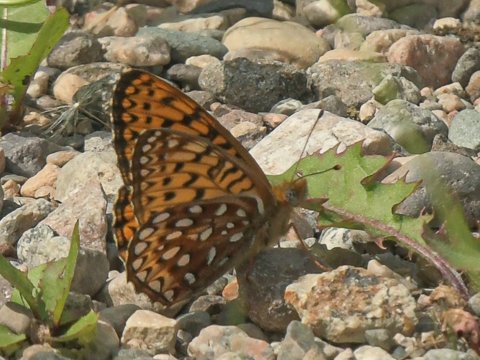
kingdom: Animalia
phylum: Arthropoda
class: Insecta
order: Lepidoptera
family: Nymphalidae
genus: Speyeria
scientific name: Speyeria atlantis
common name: Northwestern Fritillary
